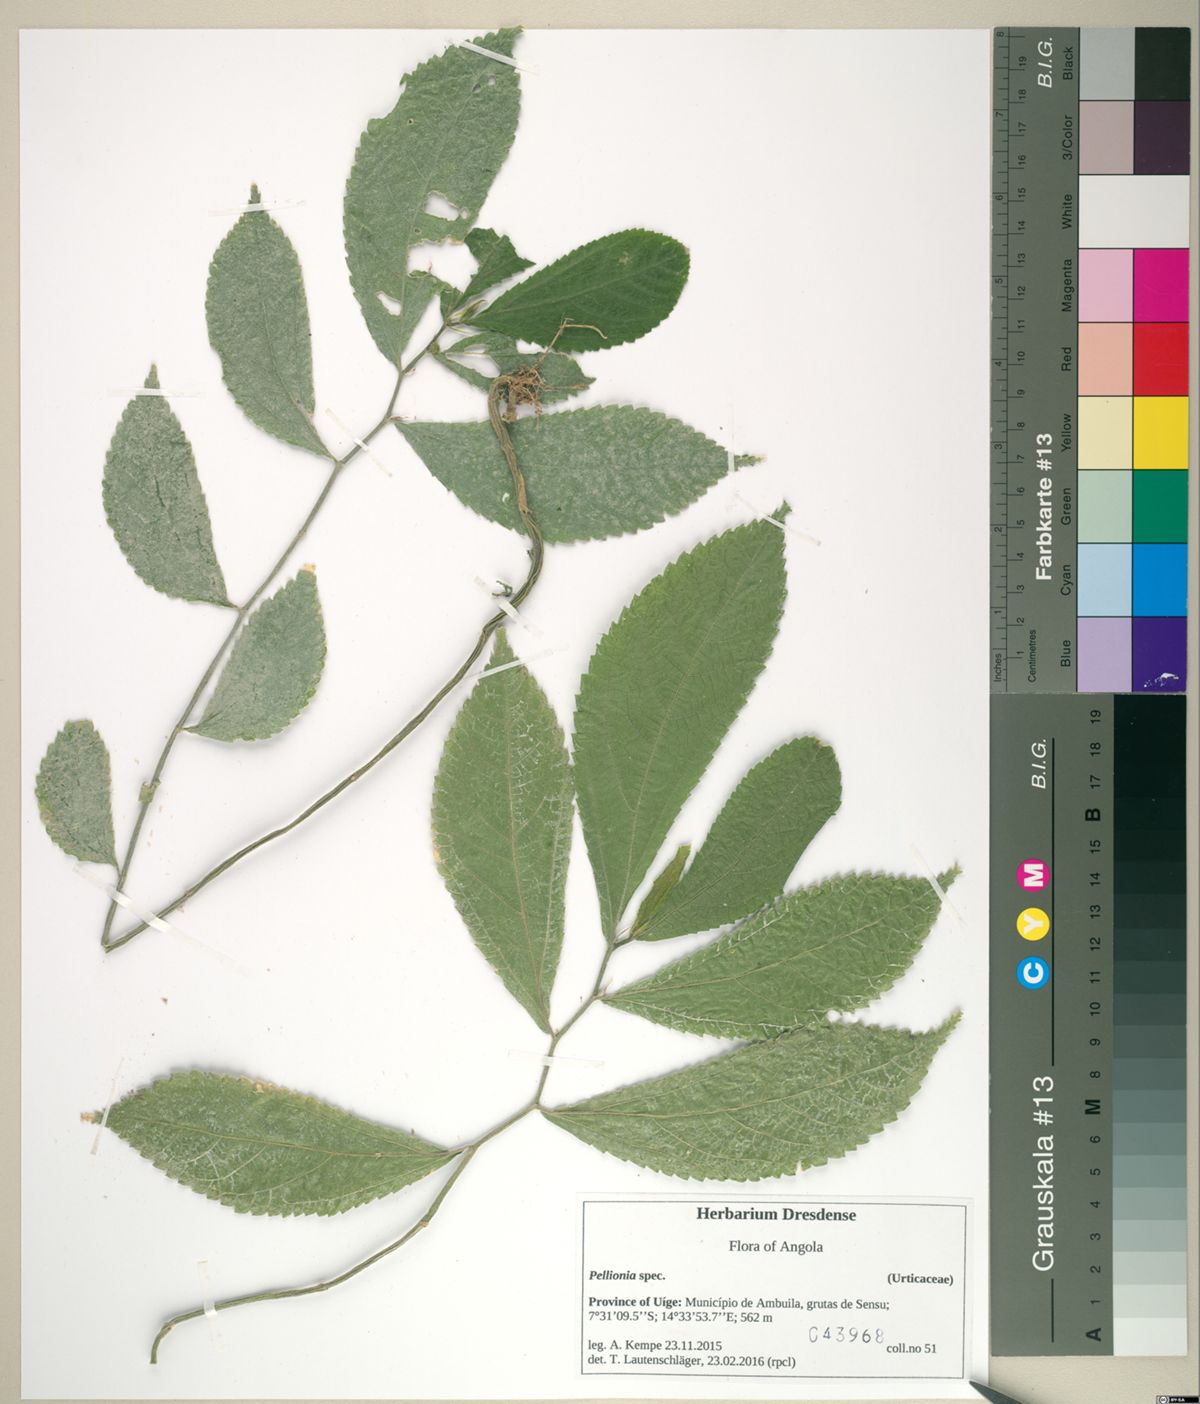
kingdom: Plantae
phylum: Tracheophyta
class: Magnoliopsida
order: Rosales
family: Urticaceae
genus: Elatostema
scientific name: Elatostema welwitschii
